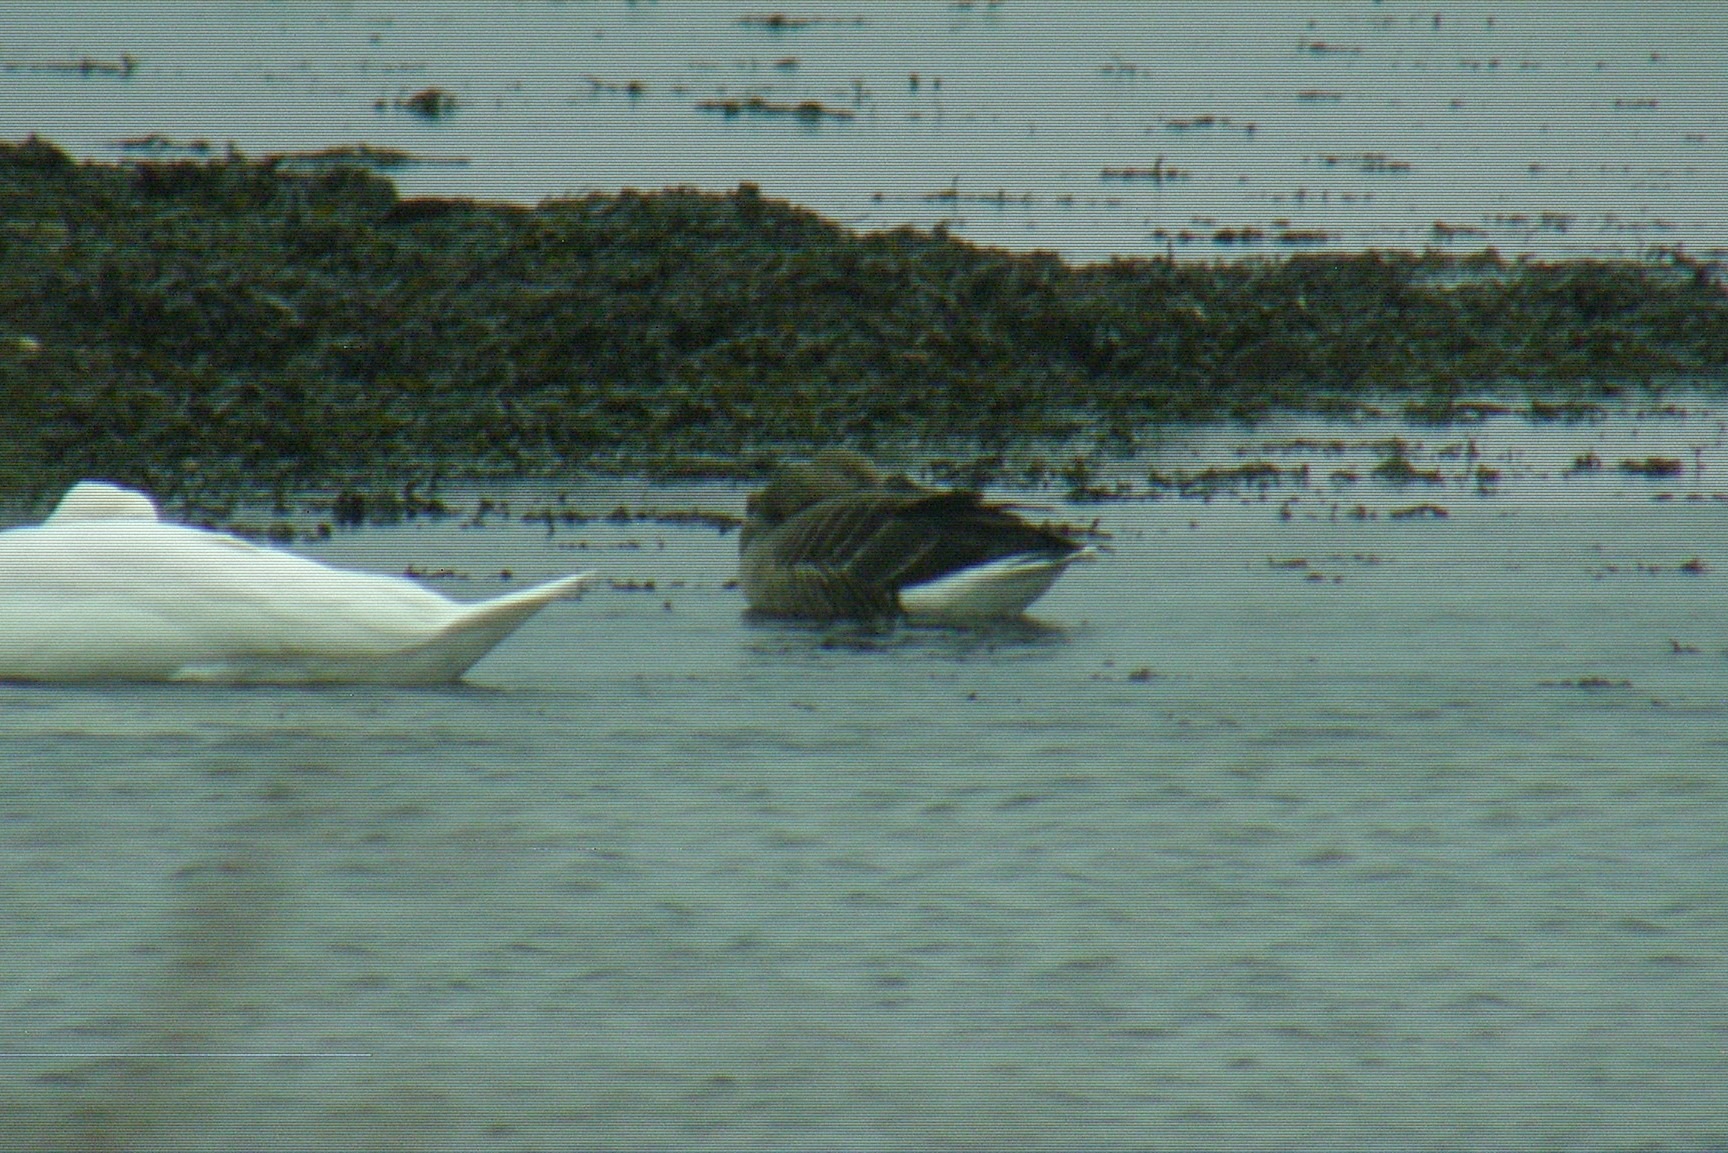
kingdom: Animalia
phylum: Chordata
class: Aves
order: Anseriformes
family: Anatidae
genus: Anser
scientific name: Anser anser
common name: Grågås
